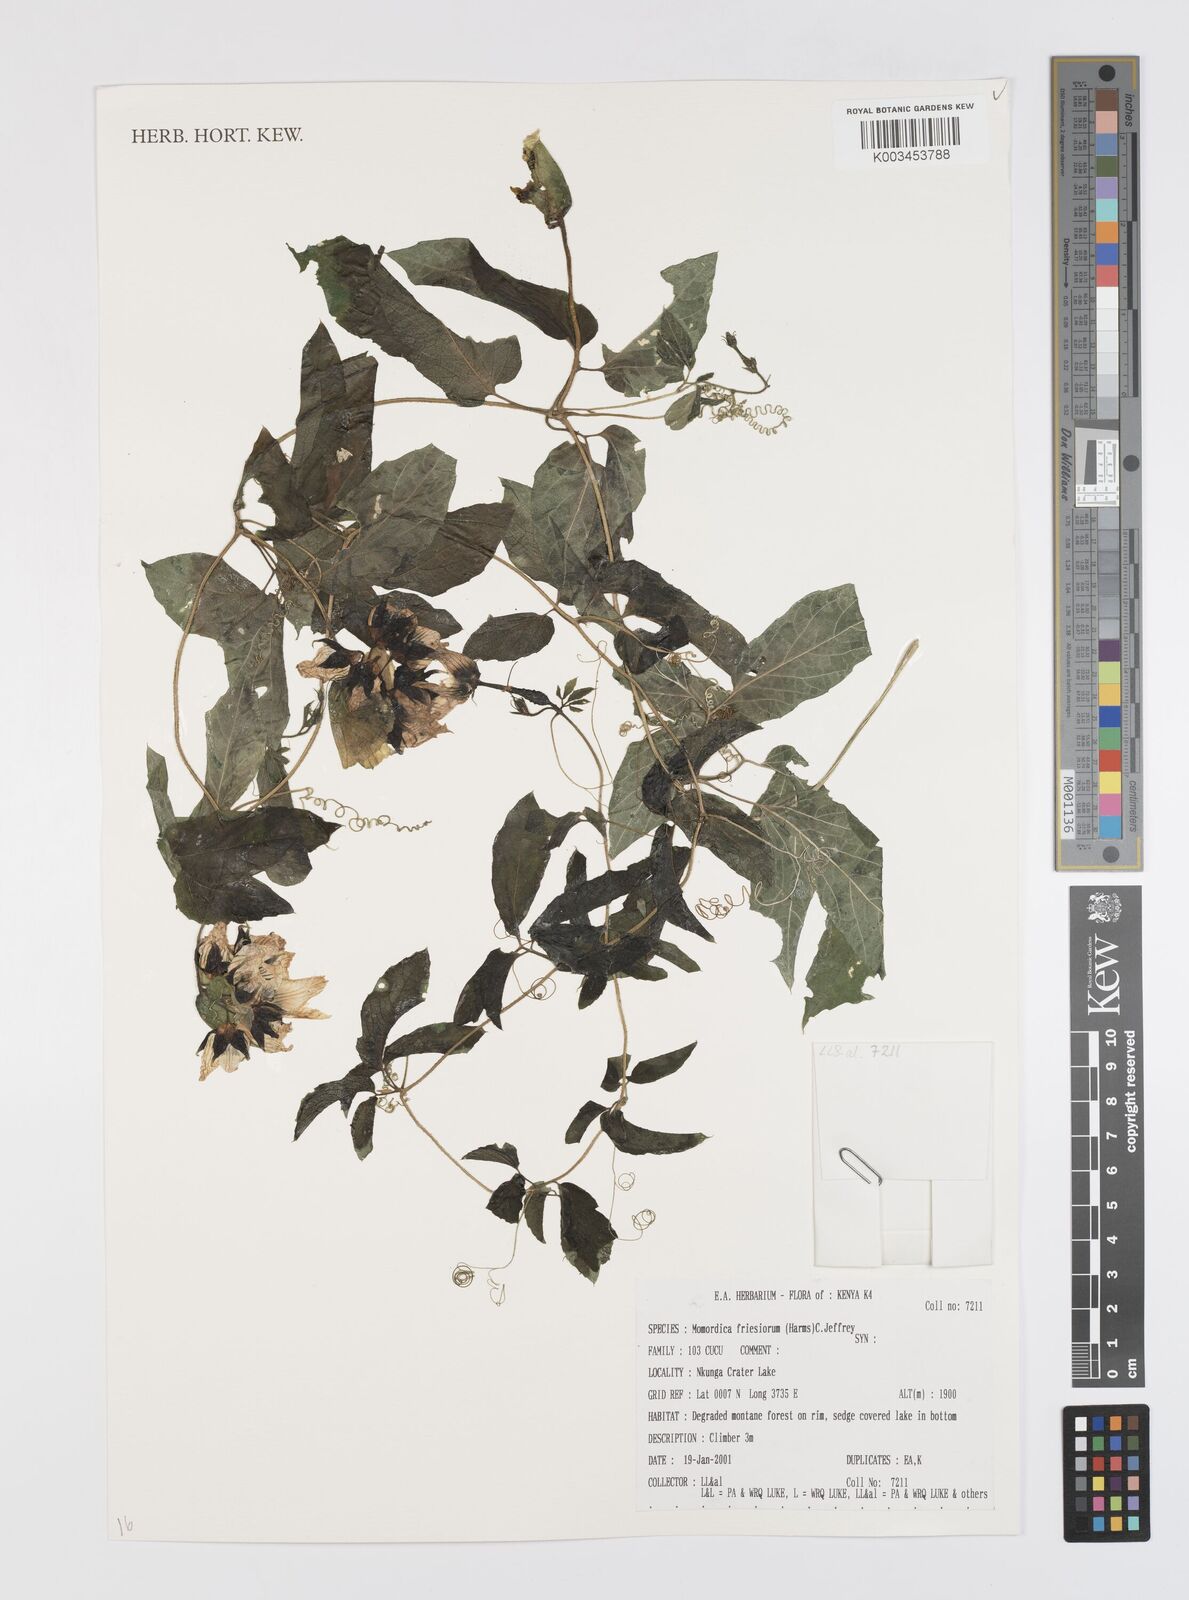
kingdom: Plantae
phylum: Tracheophyta
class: Magnoliopsida
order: Cucurbitales
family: Cucurbitaceae
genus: Momordica
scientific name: Momordica friesiorum
